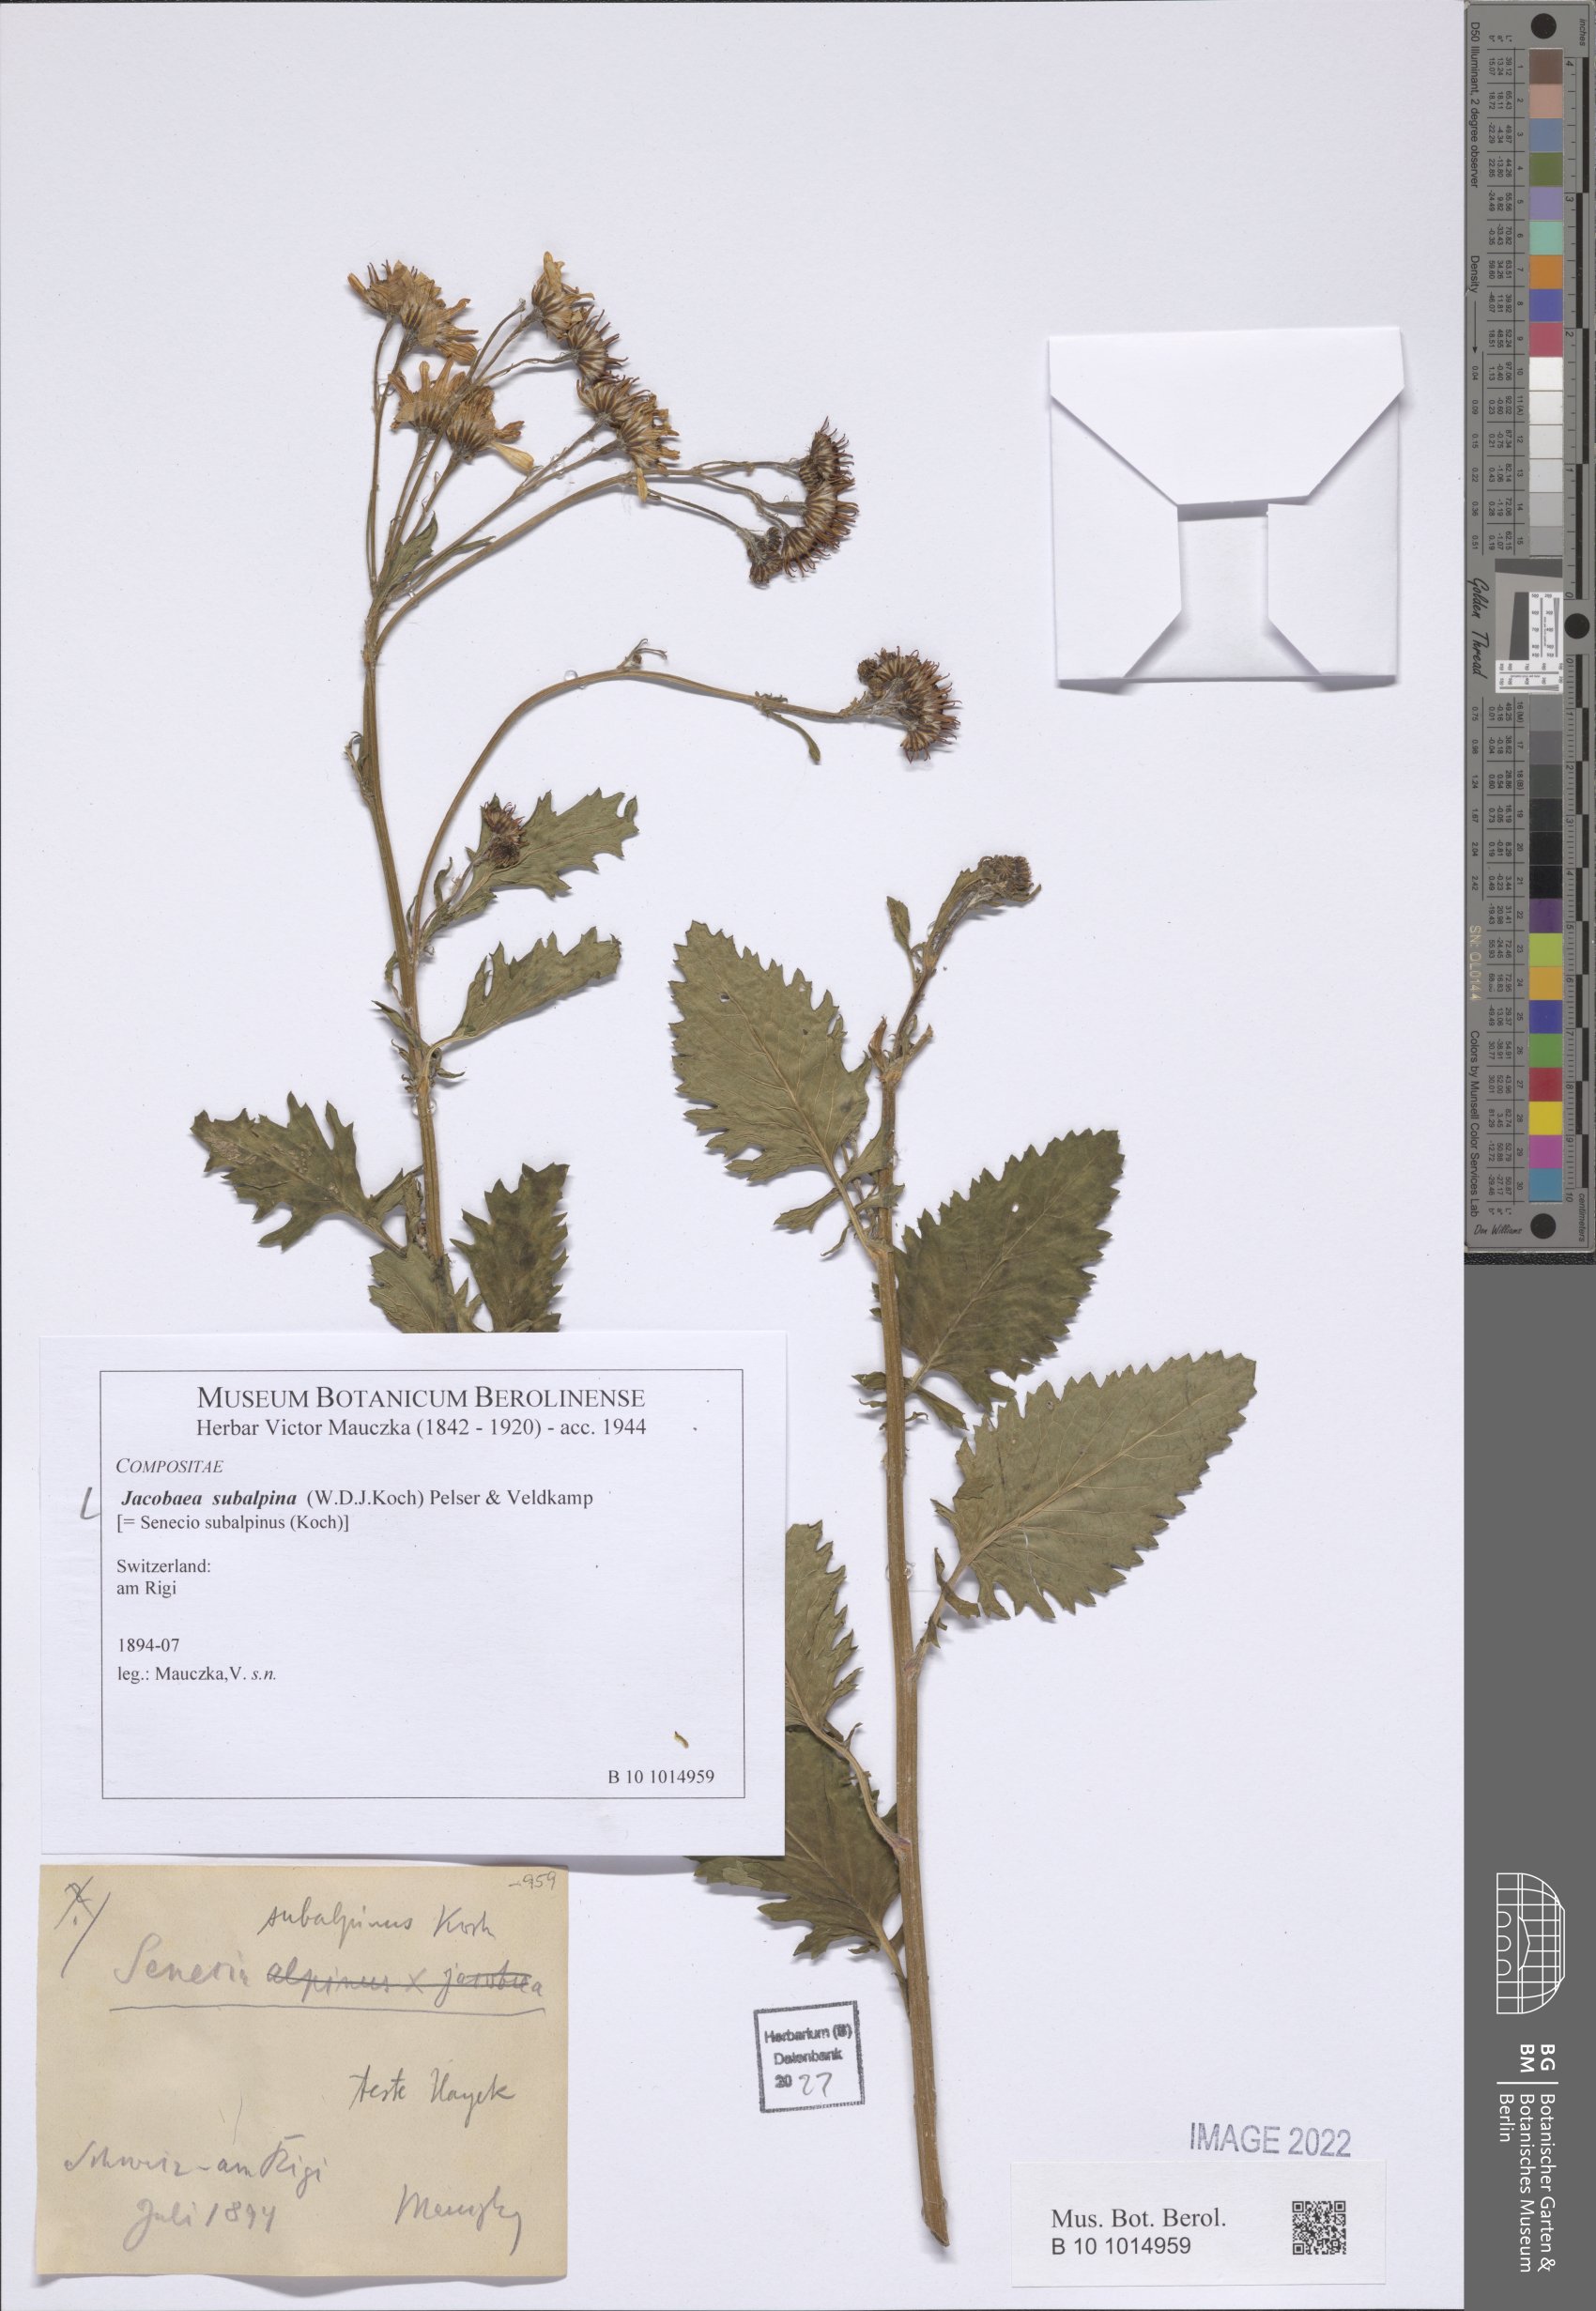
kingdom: Plantae
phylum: Tracheophyta
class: Magnoliopsida
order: Asterales
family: Asteraceae
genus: Jacobaea
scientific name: Jacobaea subalpina
